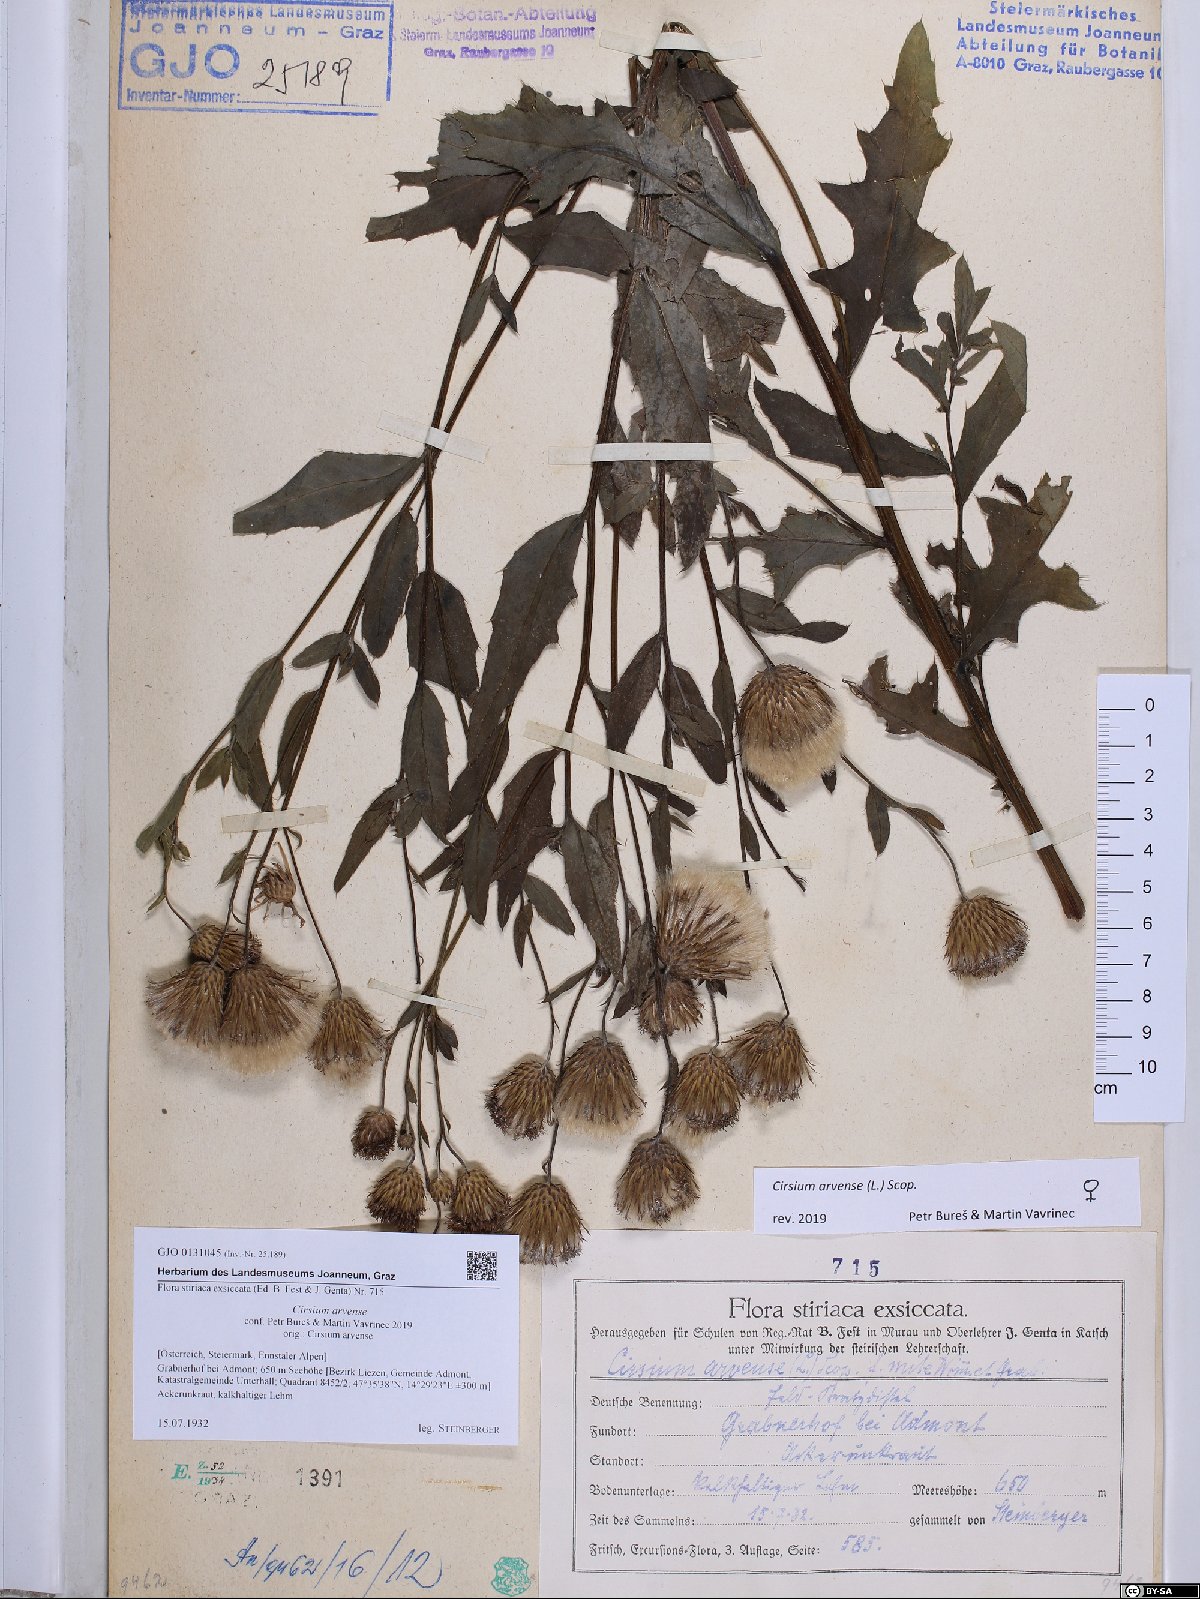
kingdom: Plantae
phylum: Tracheophyta
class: Magnoliopsida
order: Asterales
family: Asteraceae
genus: Cirsium
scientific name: Cirsium arvense
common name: Creeping thistle
